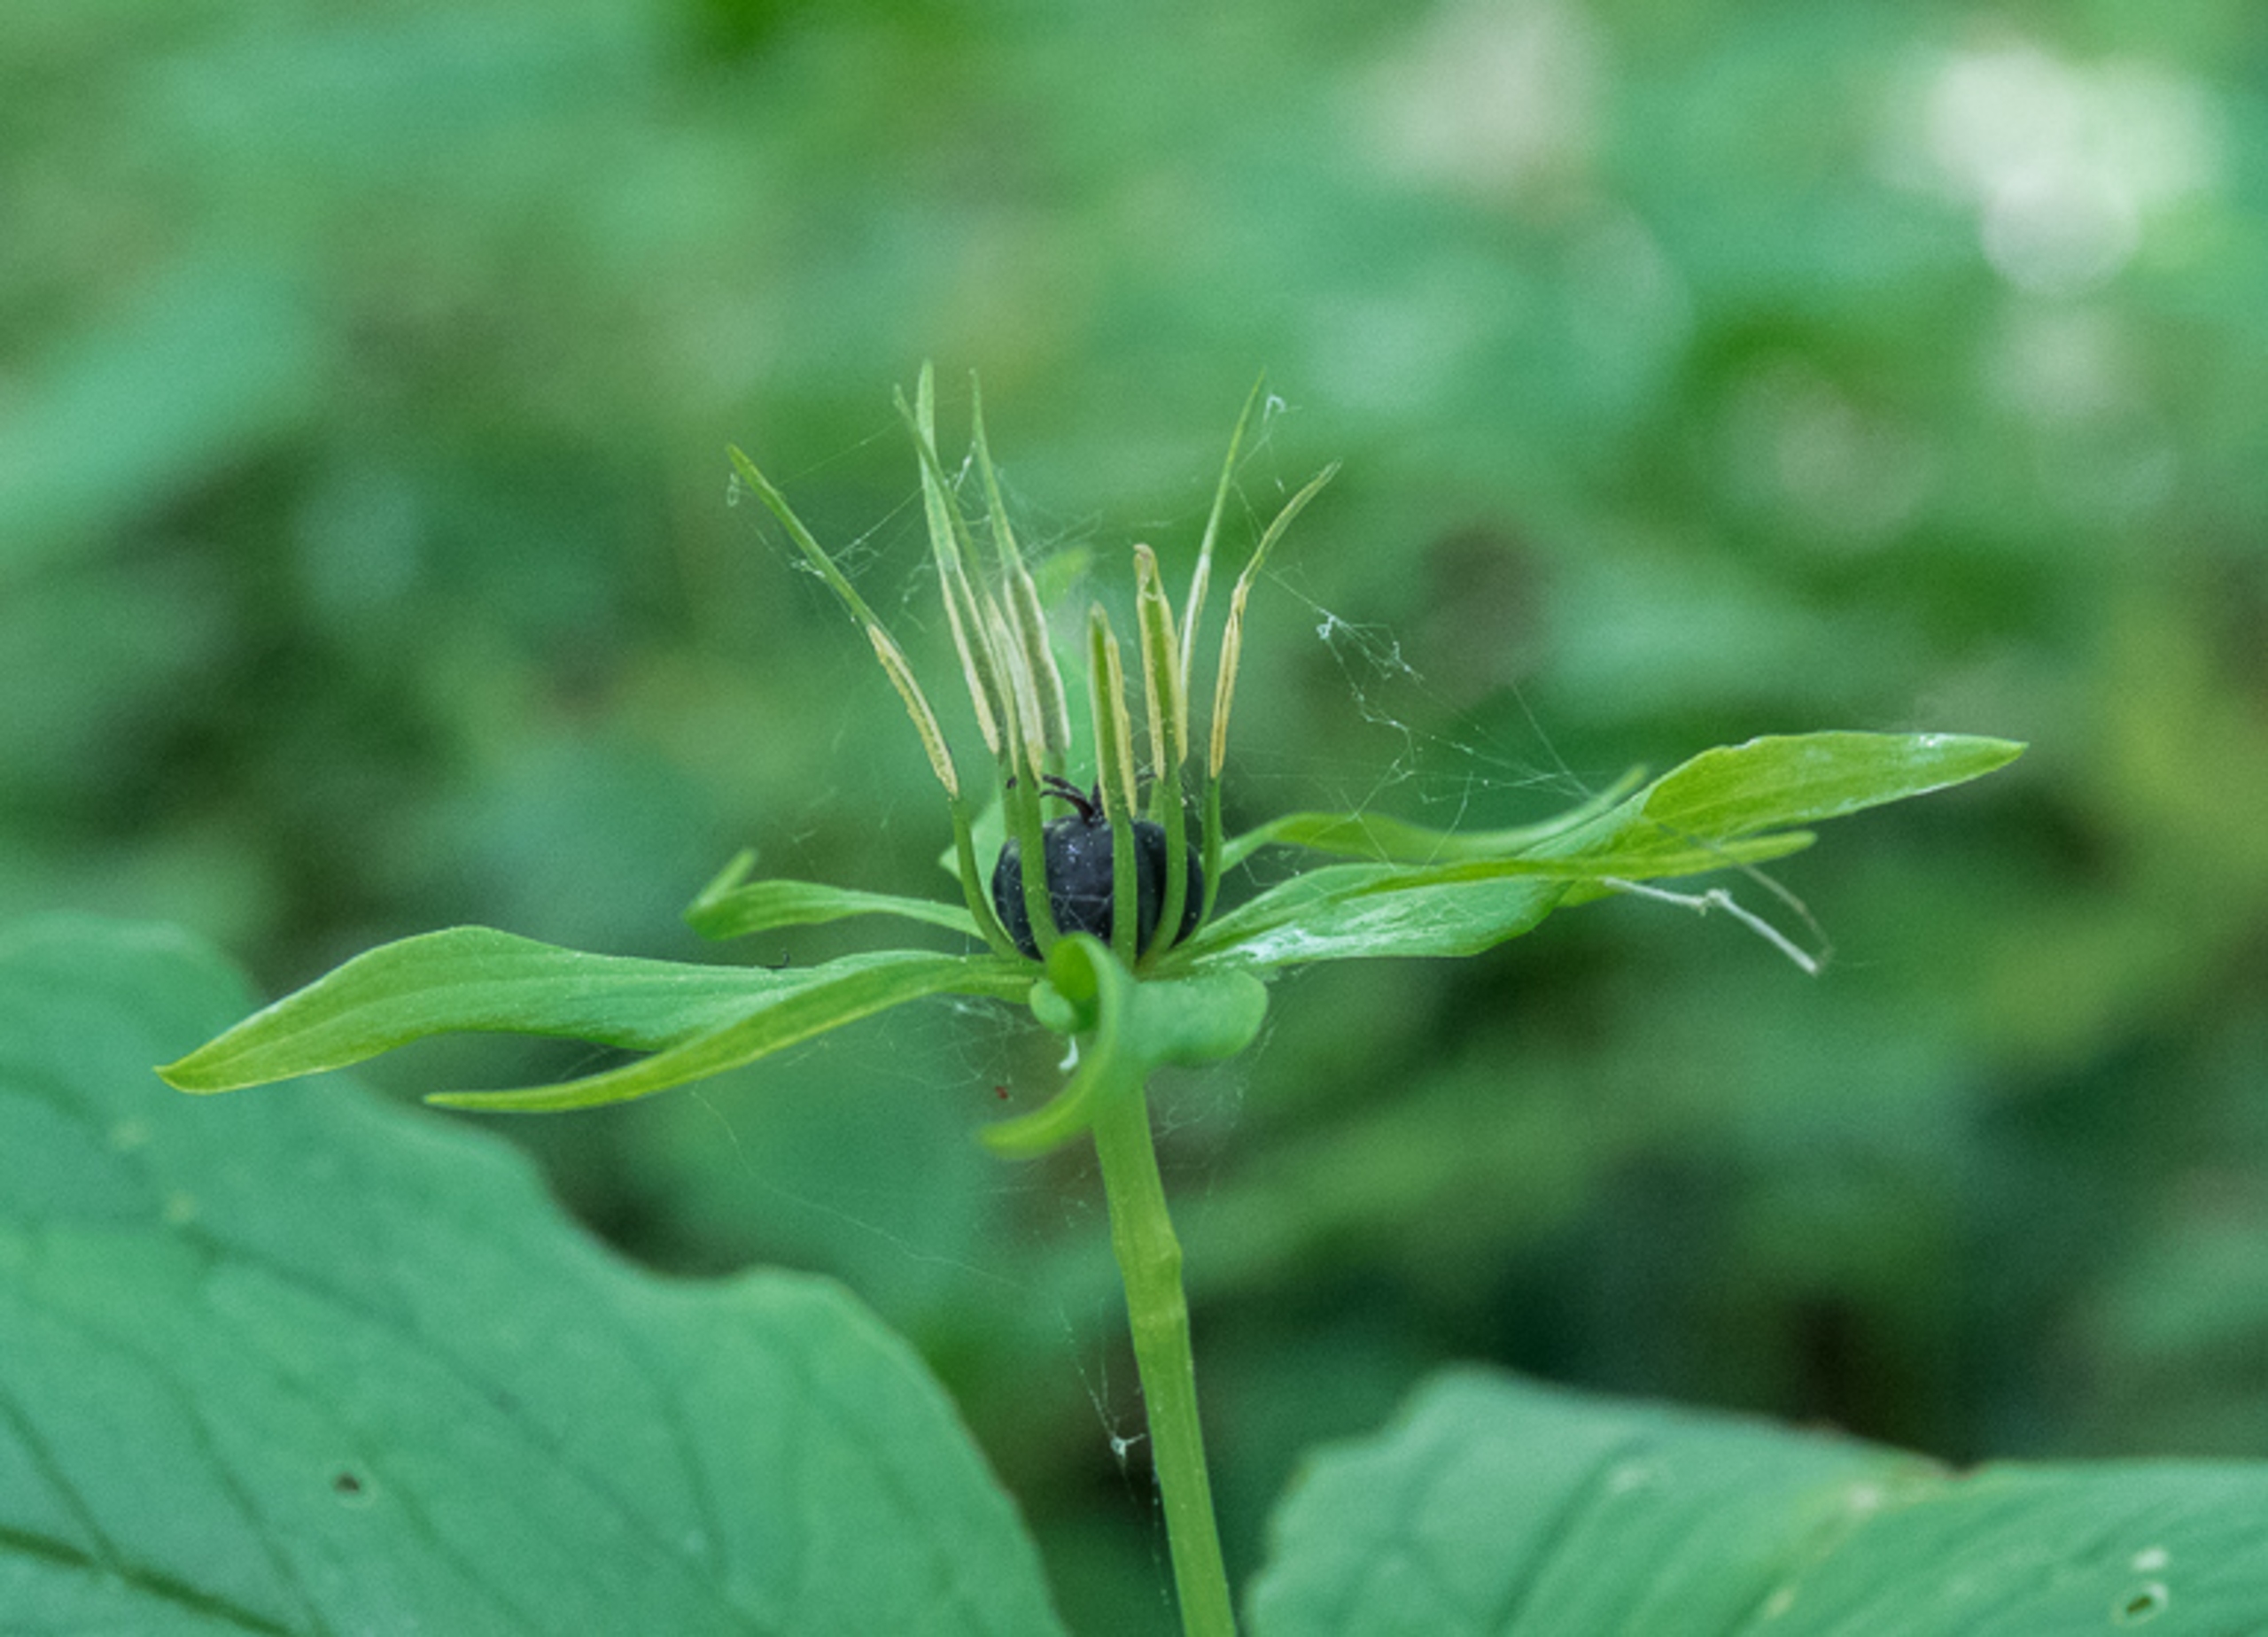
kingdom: Plantae
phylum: Tracheophyta
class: Liliopsida
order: Liliales
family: Melanthiaceae
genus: Paris
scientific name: Paris quadrifolia
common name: Firblad
